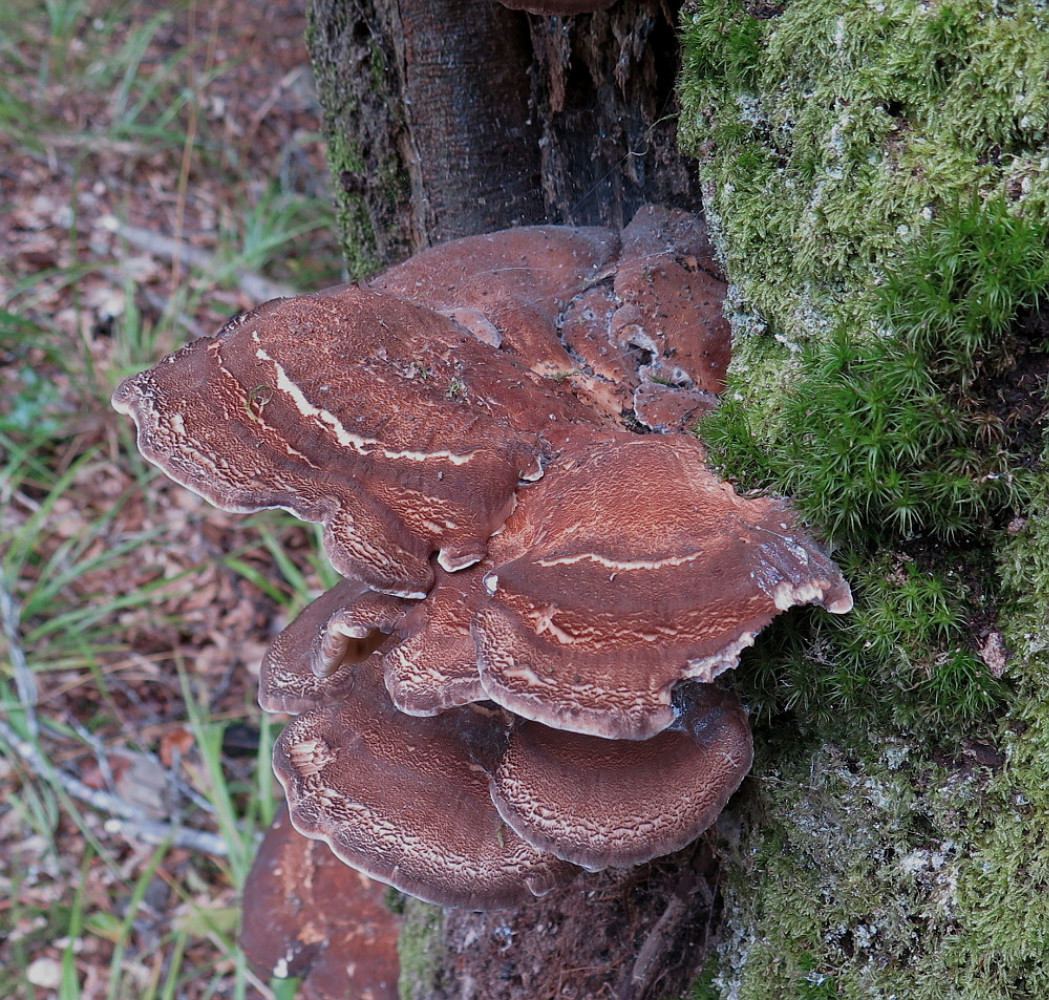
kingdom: Fungi
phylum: Basidiomycota
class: Agaricomycetes
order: Polyporales
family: Meripilaceae
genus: Meripilus
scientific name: Meripilus giganteus
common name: kæmpeporesvamp
